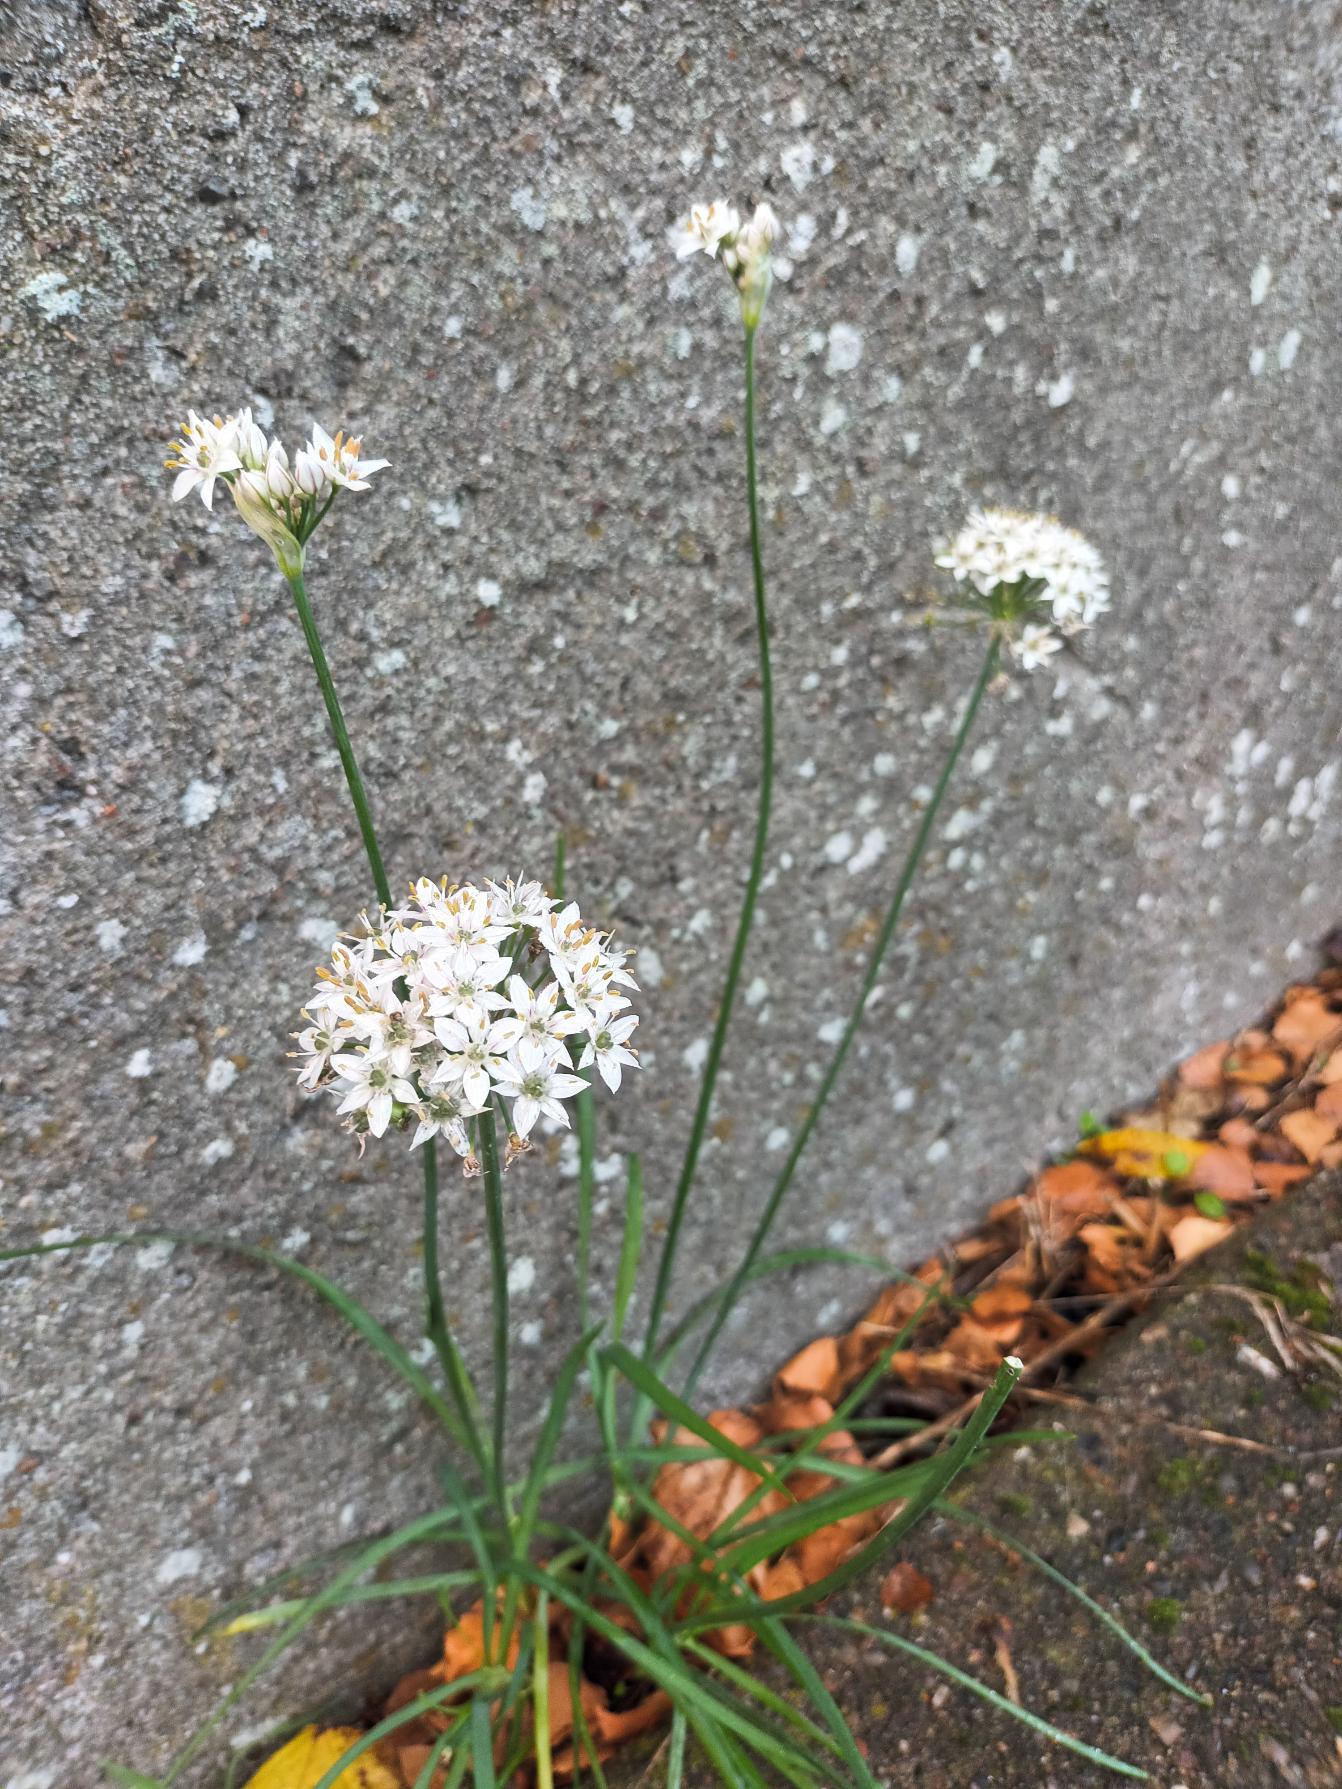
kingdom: Plantae
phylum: Tracheophyta
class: Liliopsida
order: Asparagales
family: Amaryllidaceae
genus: Allium
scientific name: Allium tuberosum
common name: Kina-løg
